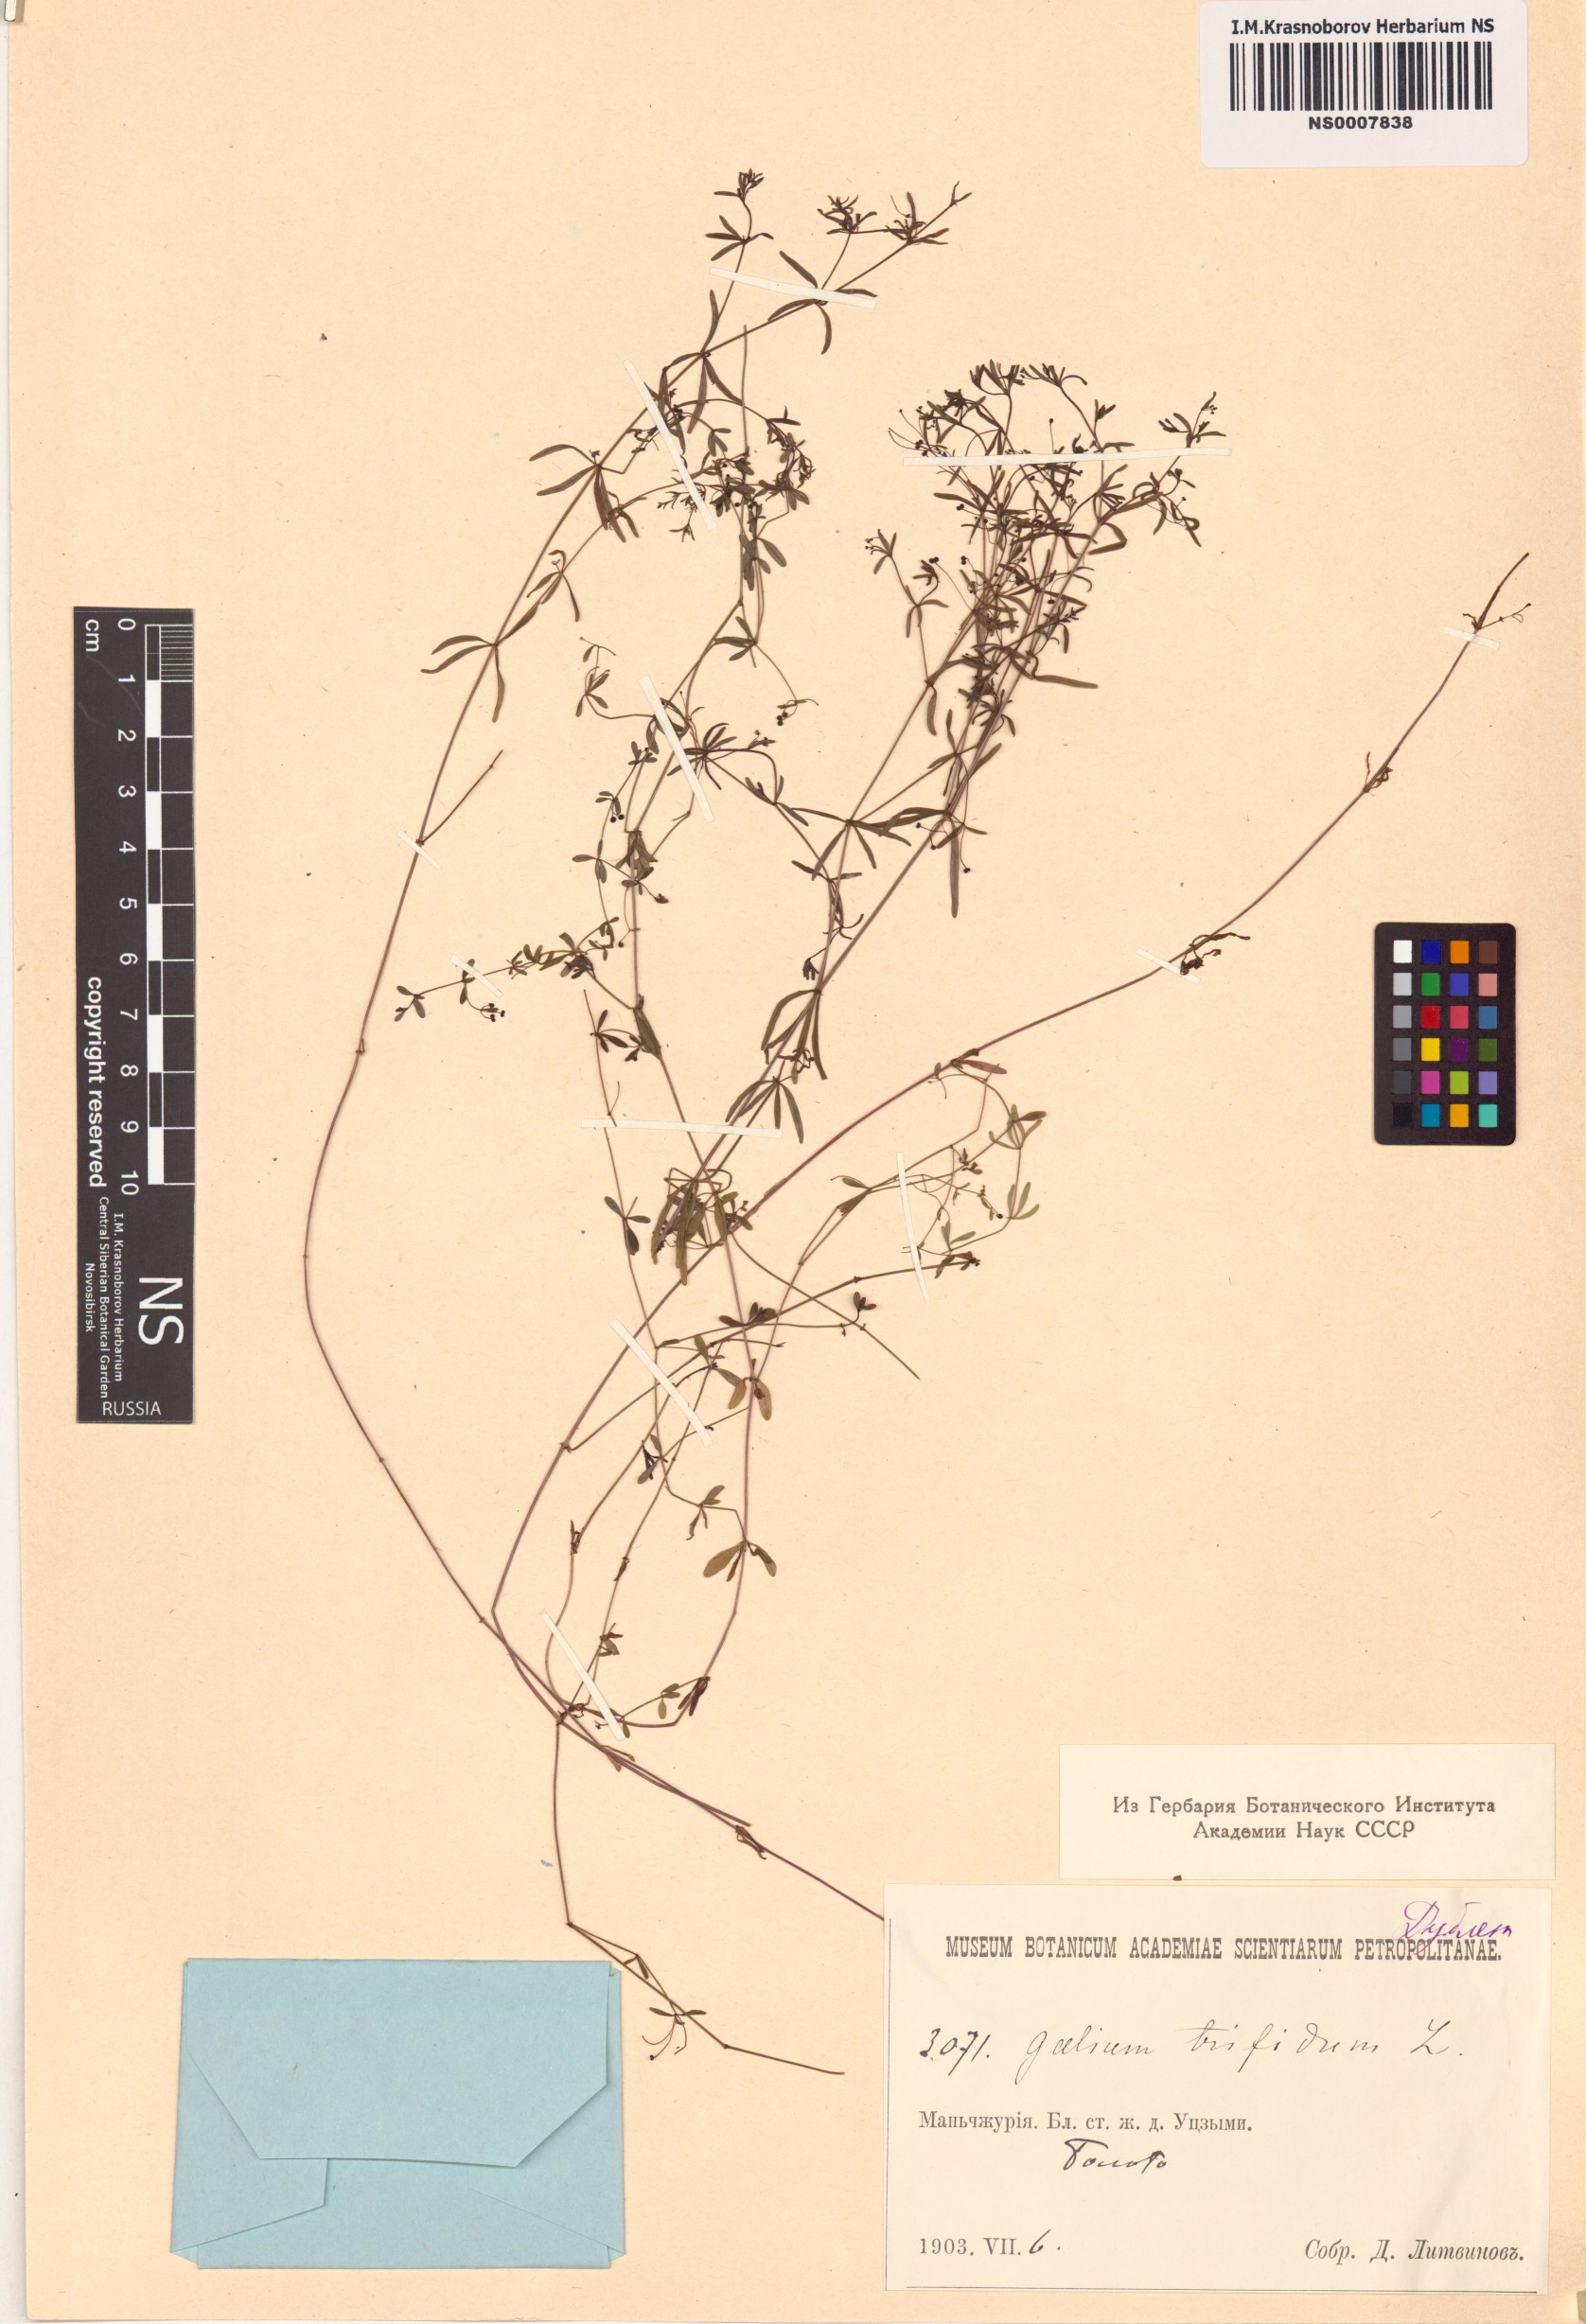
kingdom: Plantae
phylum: Tracheophyta
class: Magnoliopsida
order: Gentianales
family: Rubiaceae
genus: Galium
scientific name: Galium trifidum
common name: Small bedstraw
